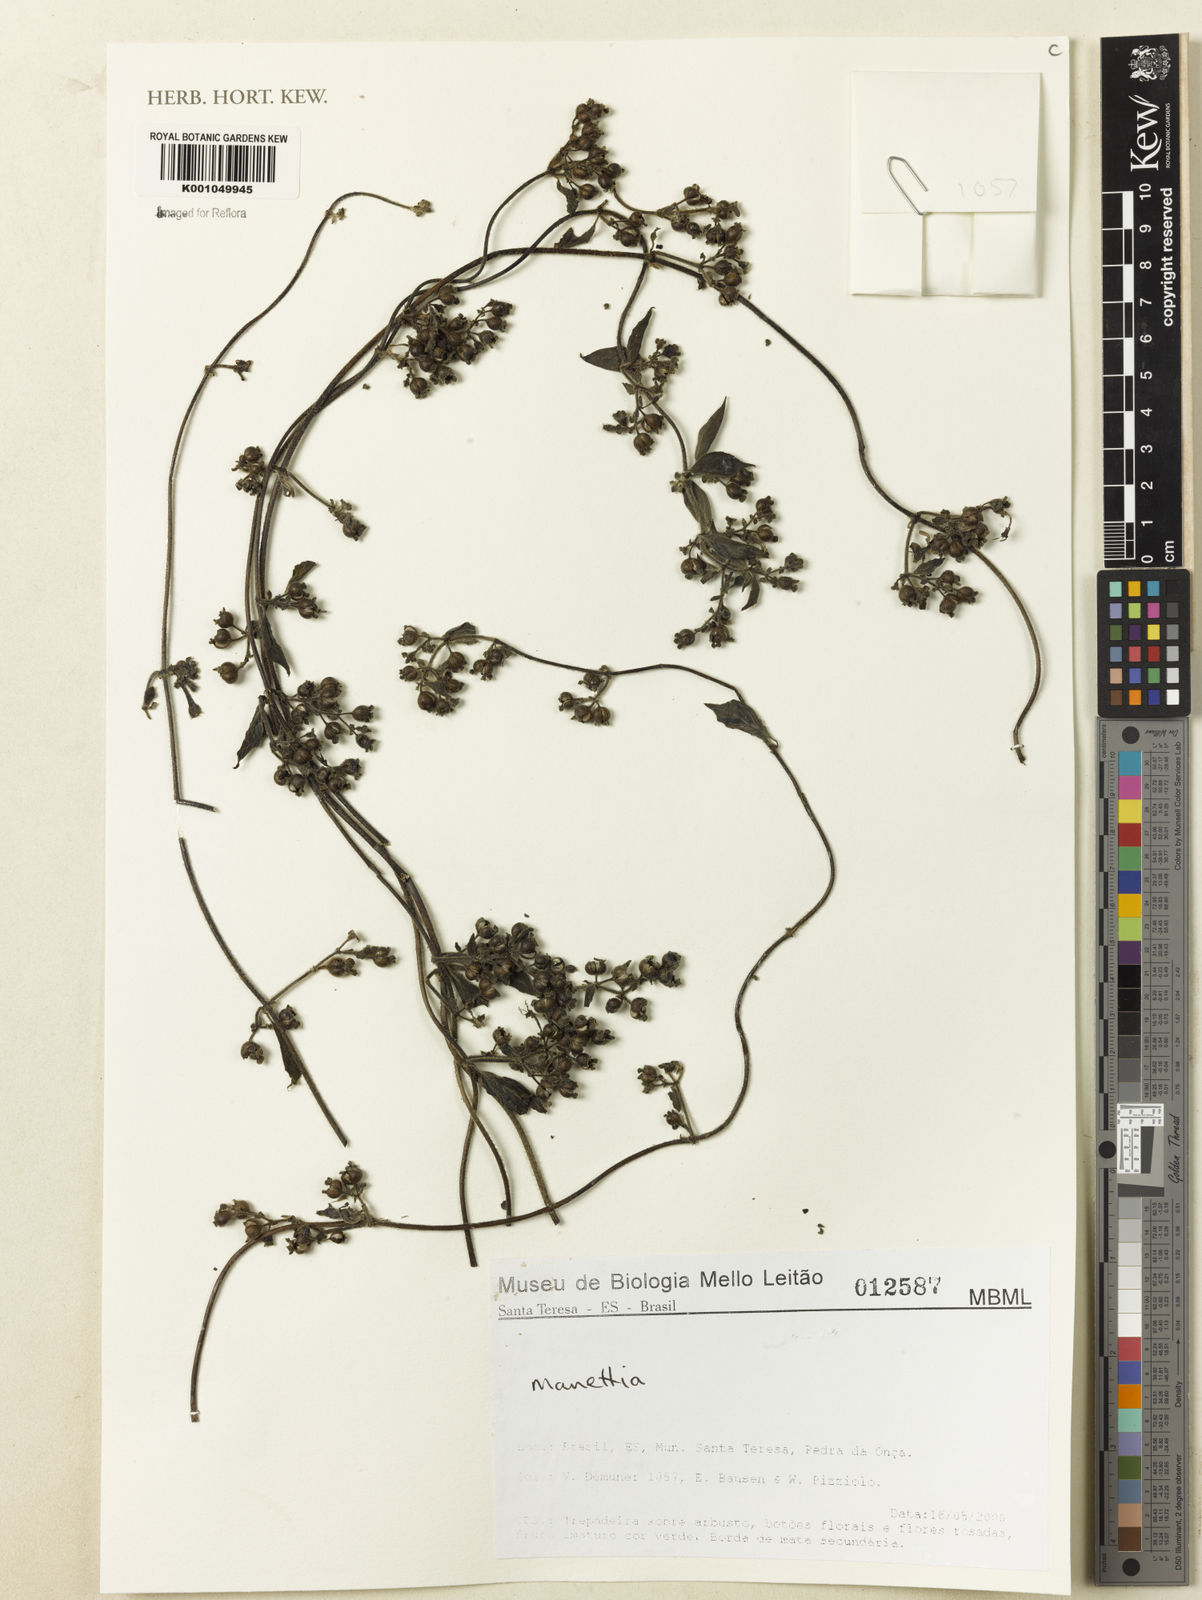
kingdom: Plantae
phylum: Tracheophyta
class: Magnoliopsida
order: Gentianales
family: Rubiaceae
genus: Manettia
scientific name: Manettia
